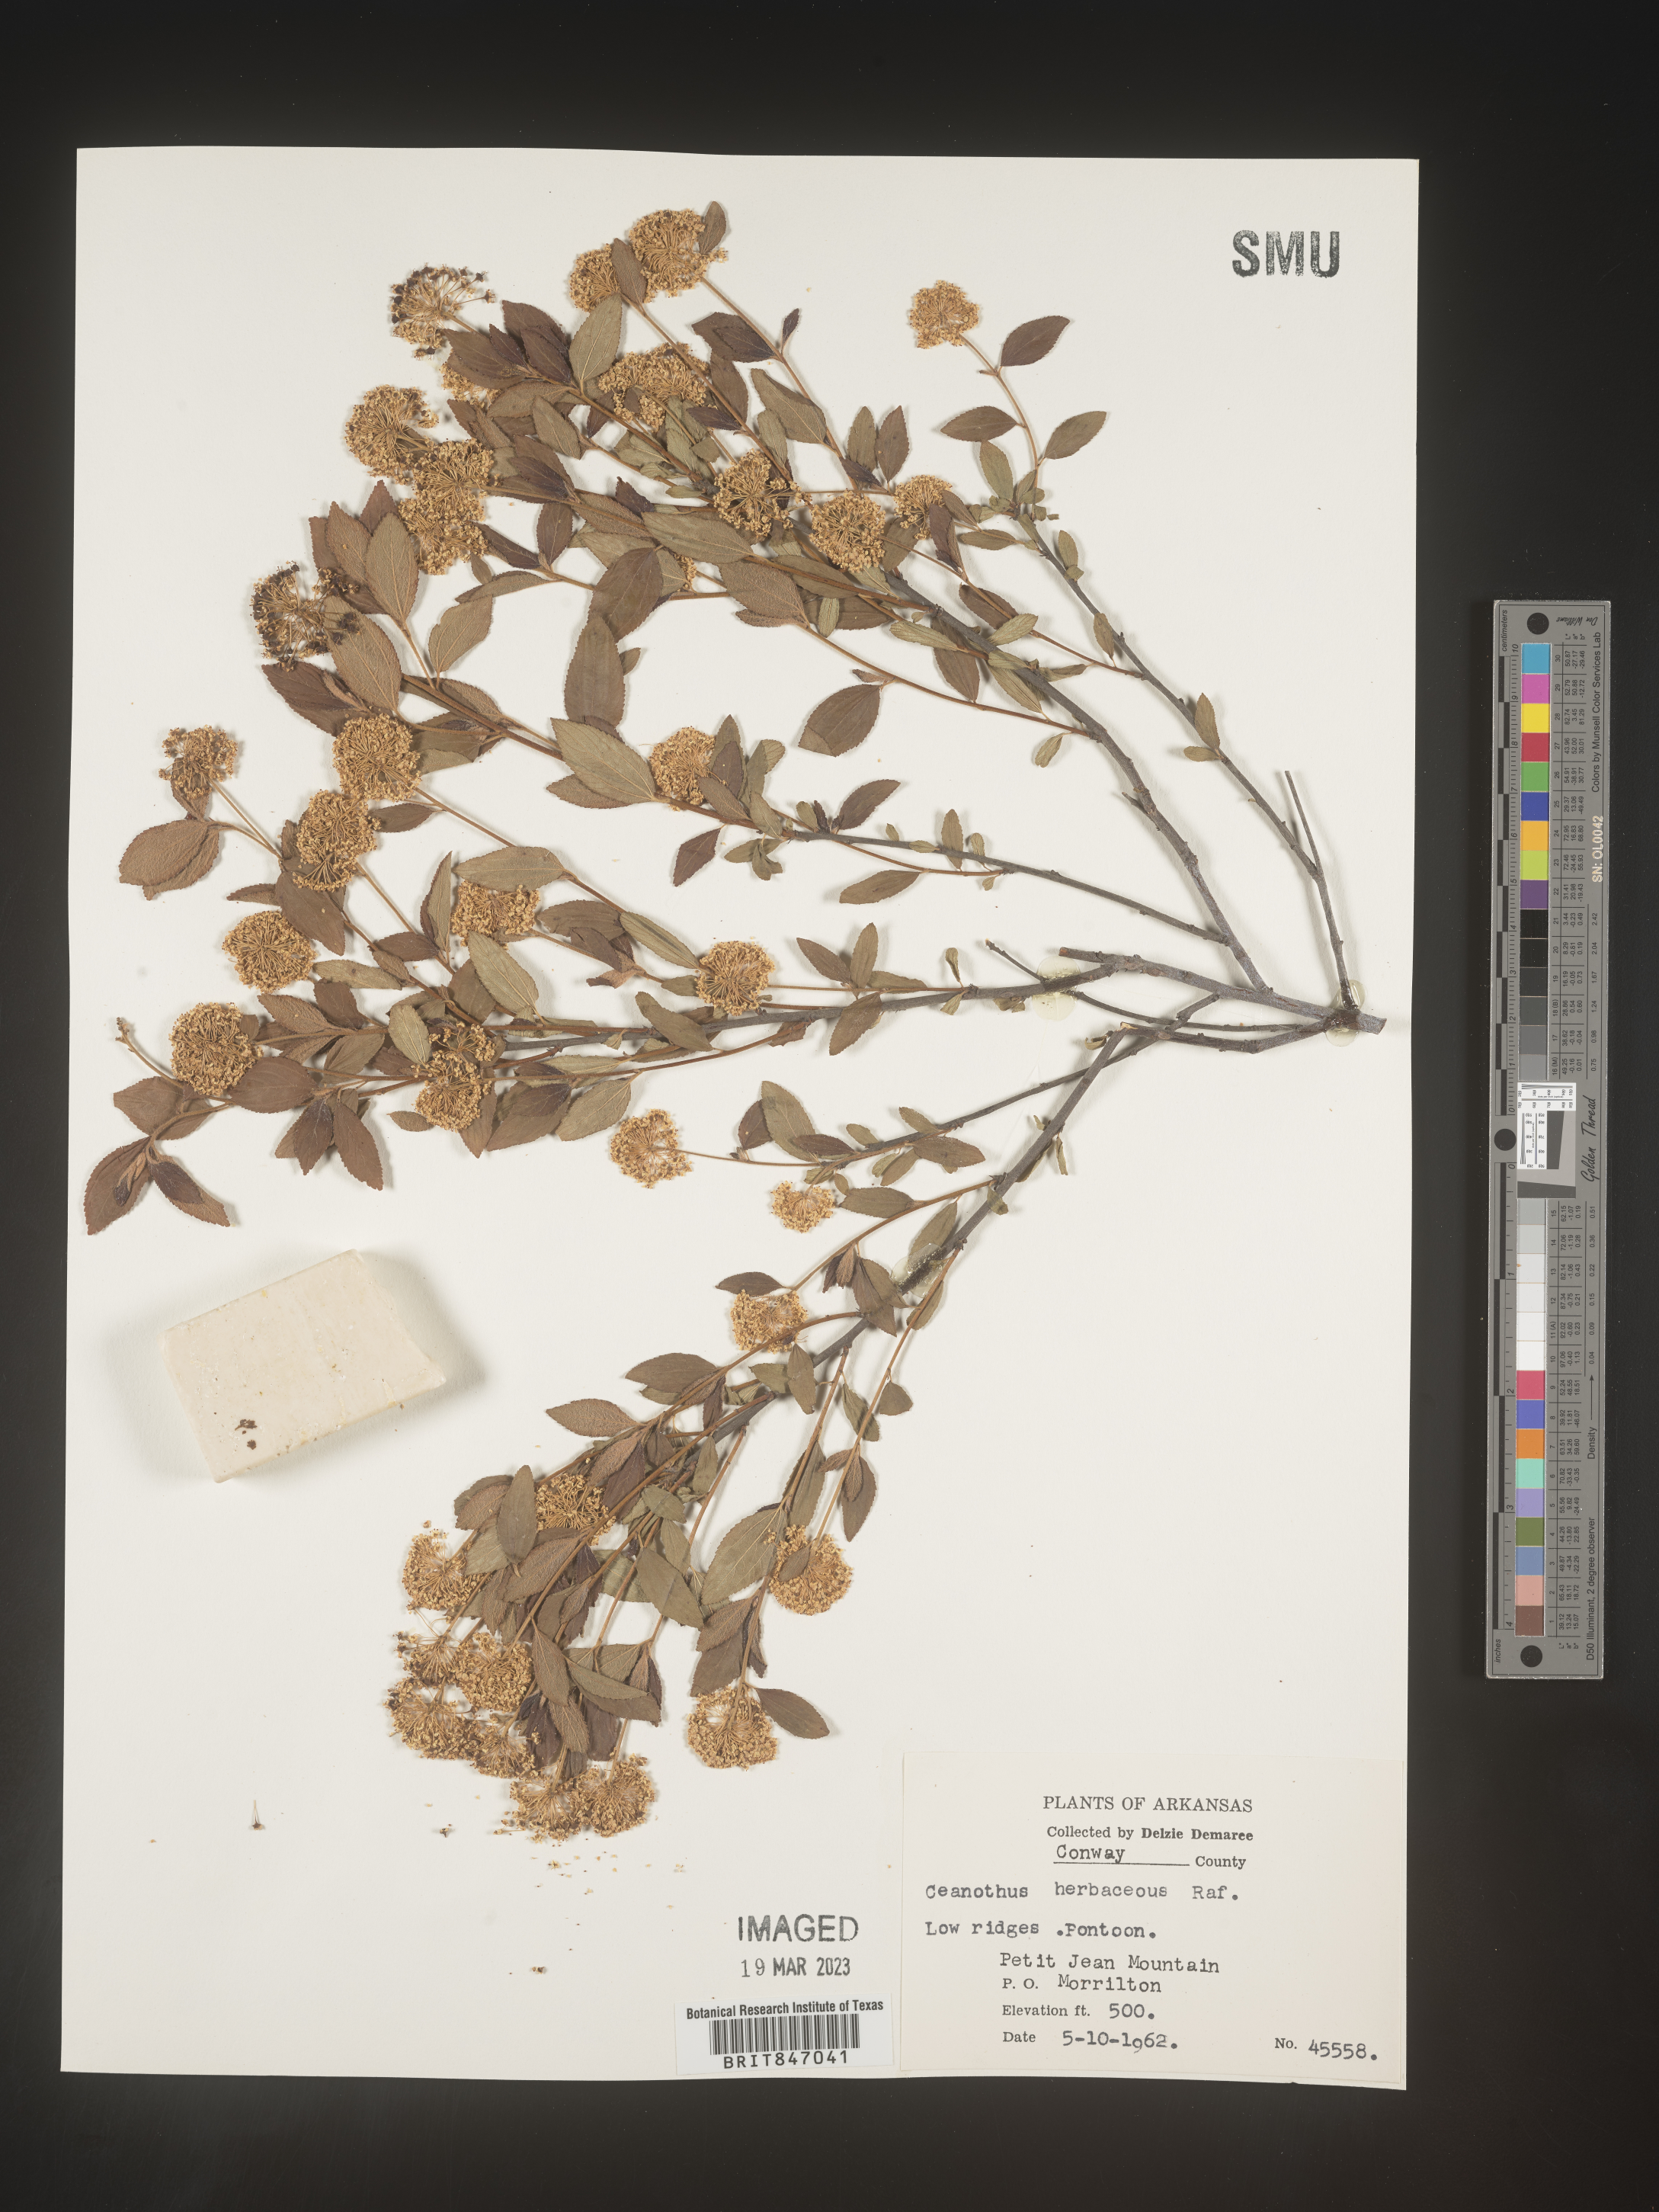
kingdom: Plantae
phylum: Tracheophyta
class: Magnoliopsida
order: Rosales
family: Rhamnaceae
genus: Ceanothus
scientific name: Ceanothus herbaceus
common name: Inland ceanothus
